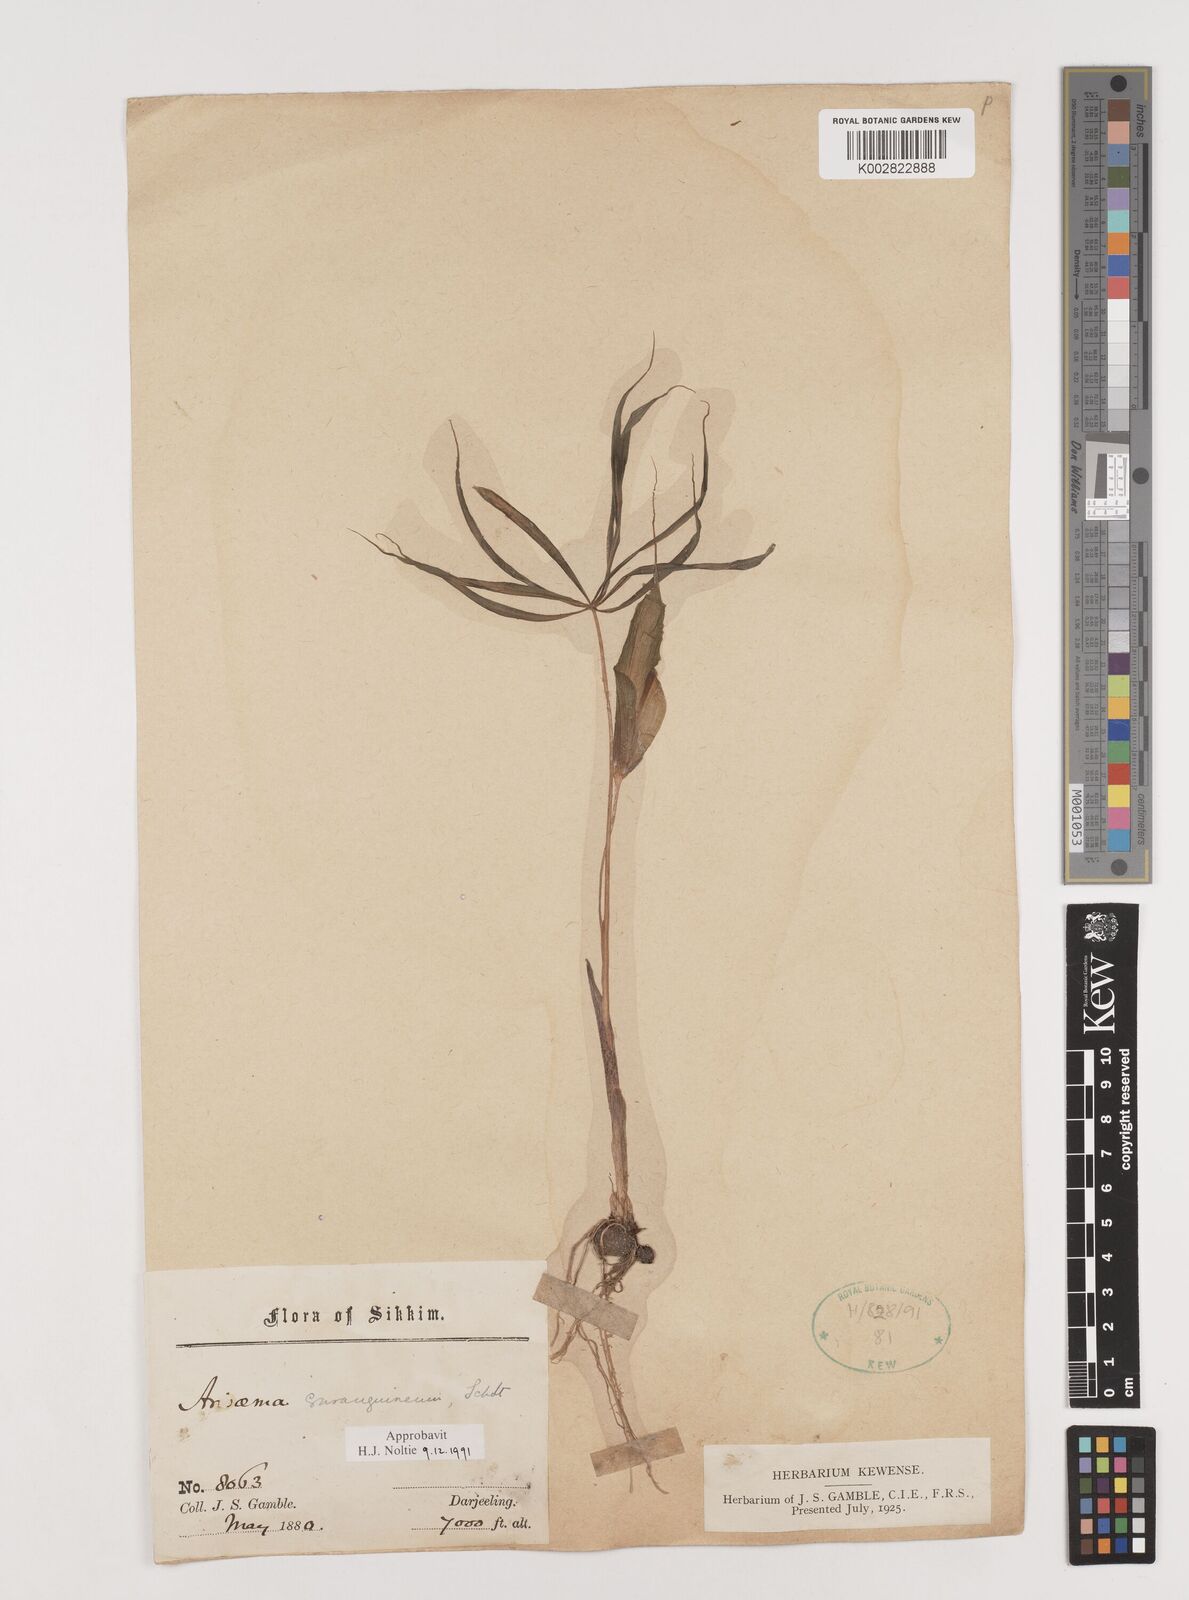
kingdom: Plantae
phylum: Tracheophyta
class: Liliopsida
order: Alismatales
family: Araceae
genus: Arisaema
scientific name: Arisaema erubescens
